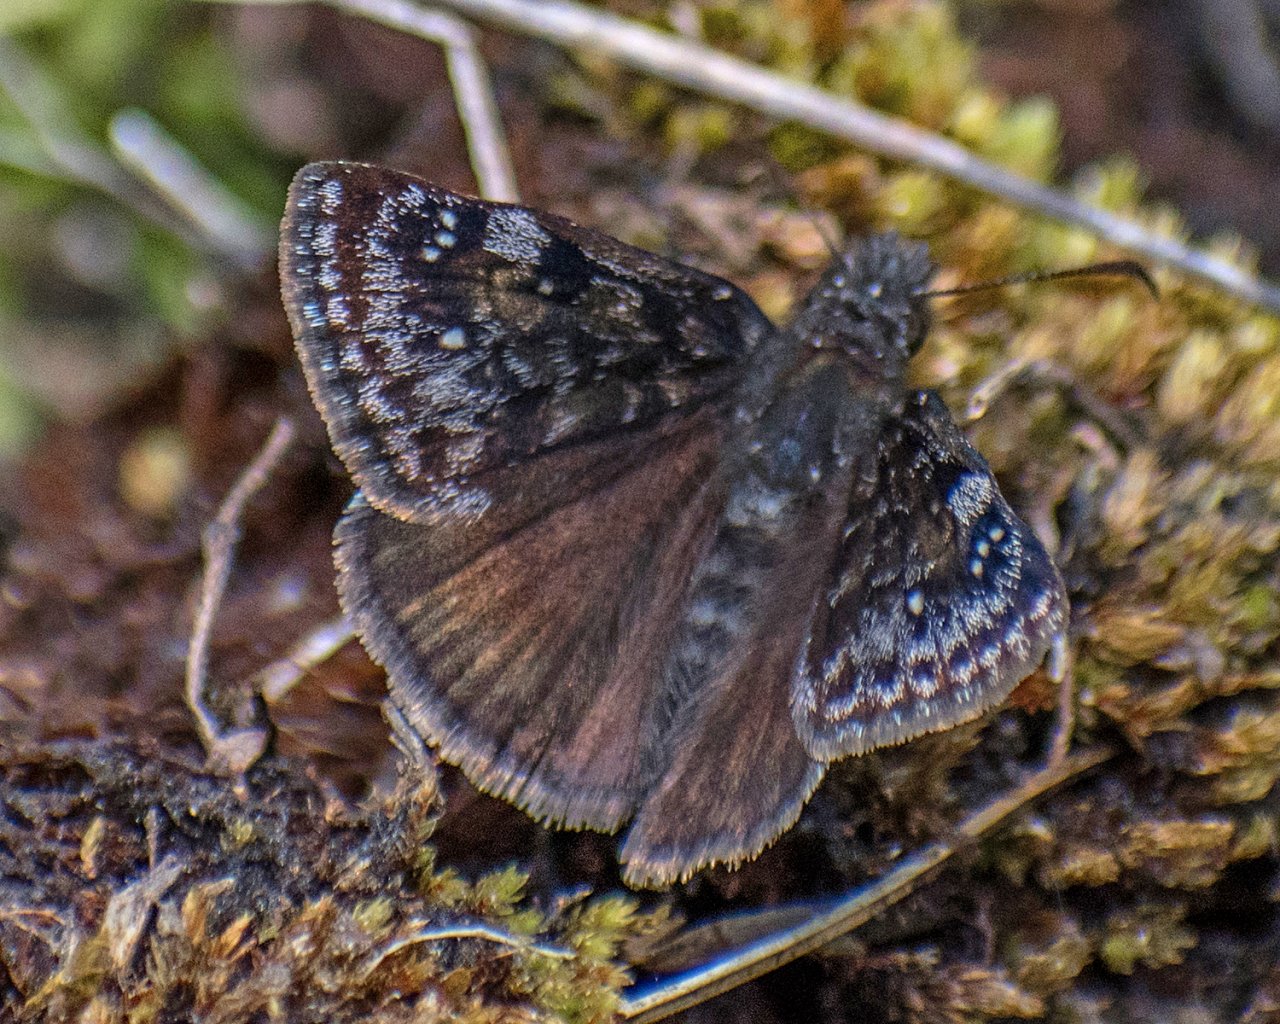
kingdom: Animalia
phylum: Arthropoda
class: Insecta
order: Lepidoptera
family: Hesperiidae
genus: Erynnis
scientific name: Erynnis pacuvius
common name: Pacuvius Duskywing
